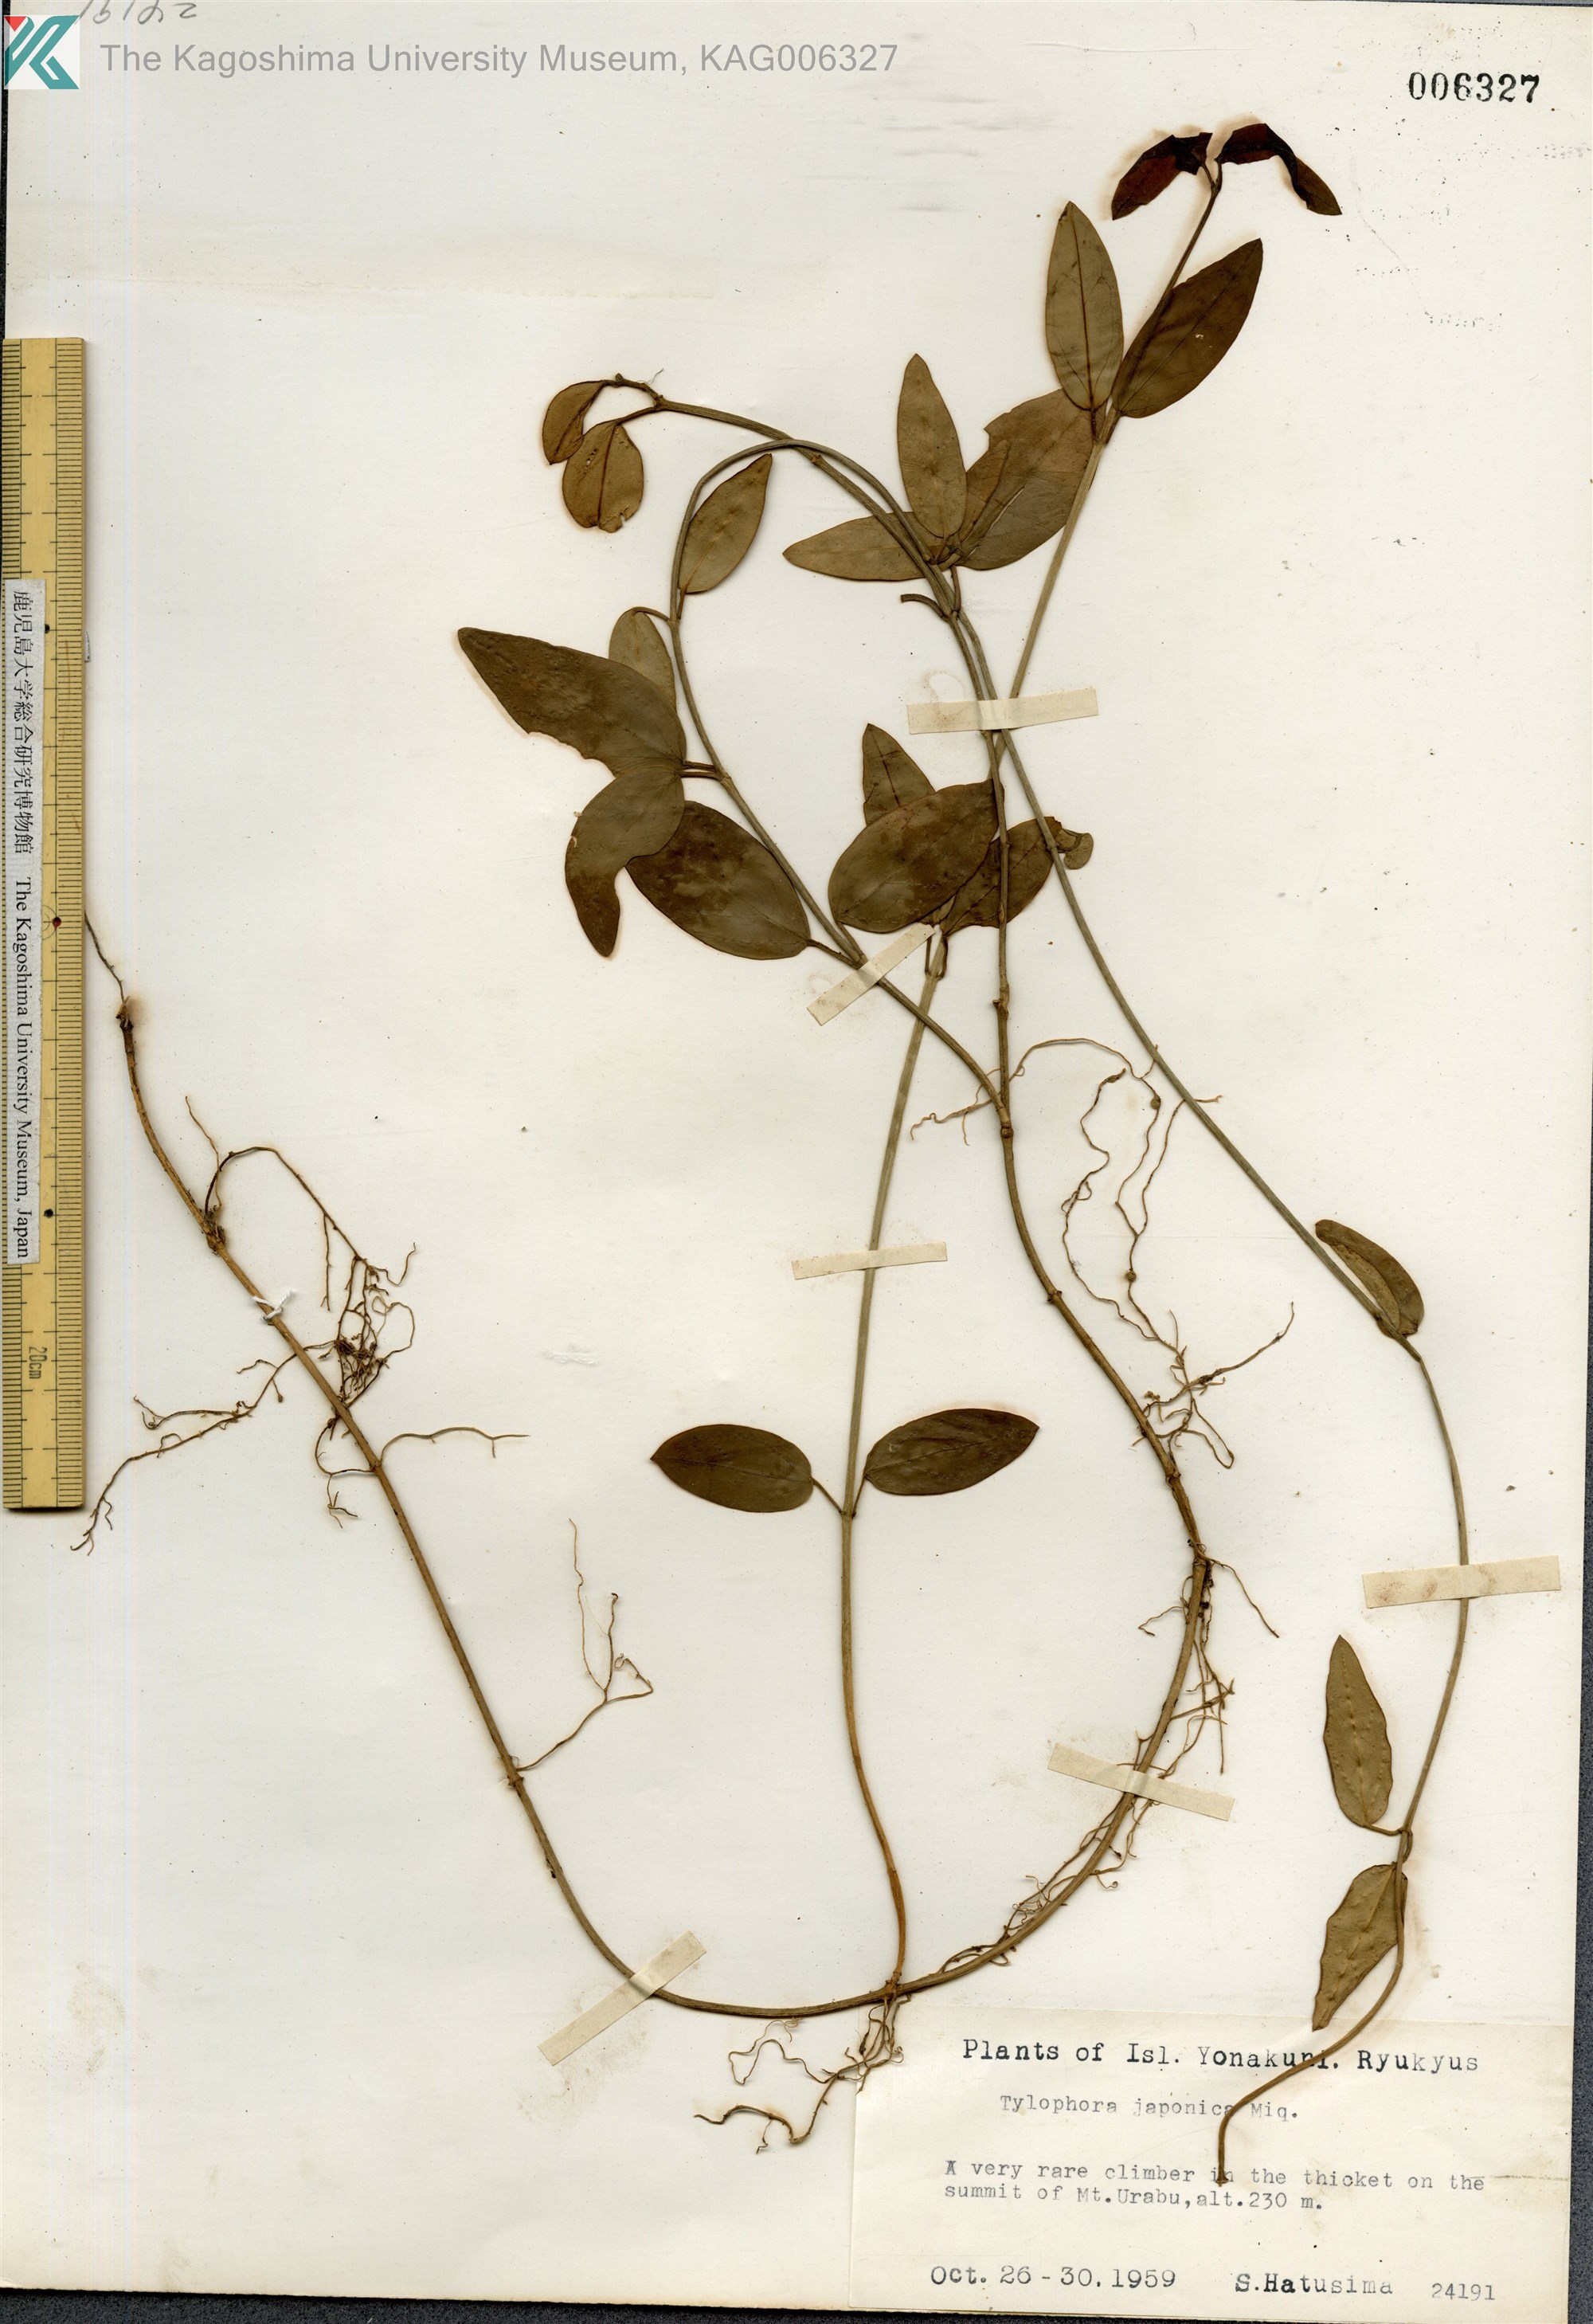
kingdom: Plantae
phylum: Tracheophyta
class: Magnoliopsida
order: Gentianales
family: Apocynaceae
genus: Vincetoxicum
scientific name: Vincetoxicum sieboldii
